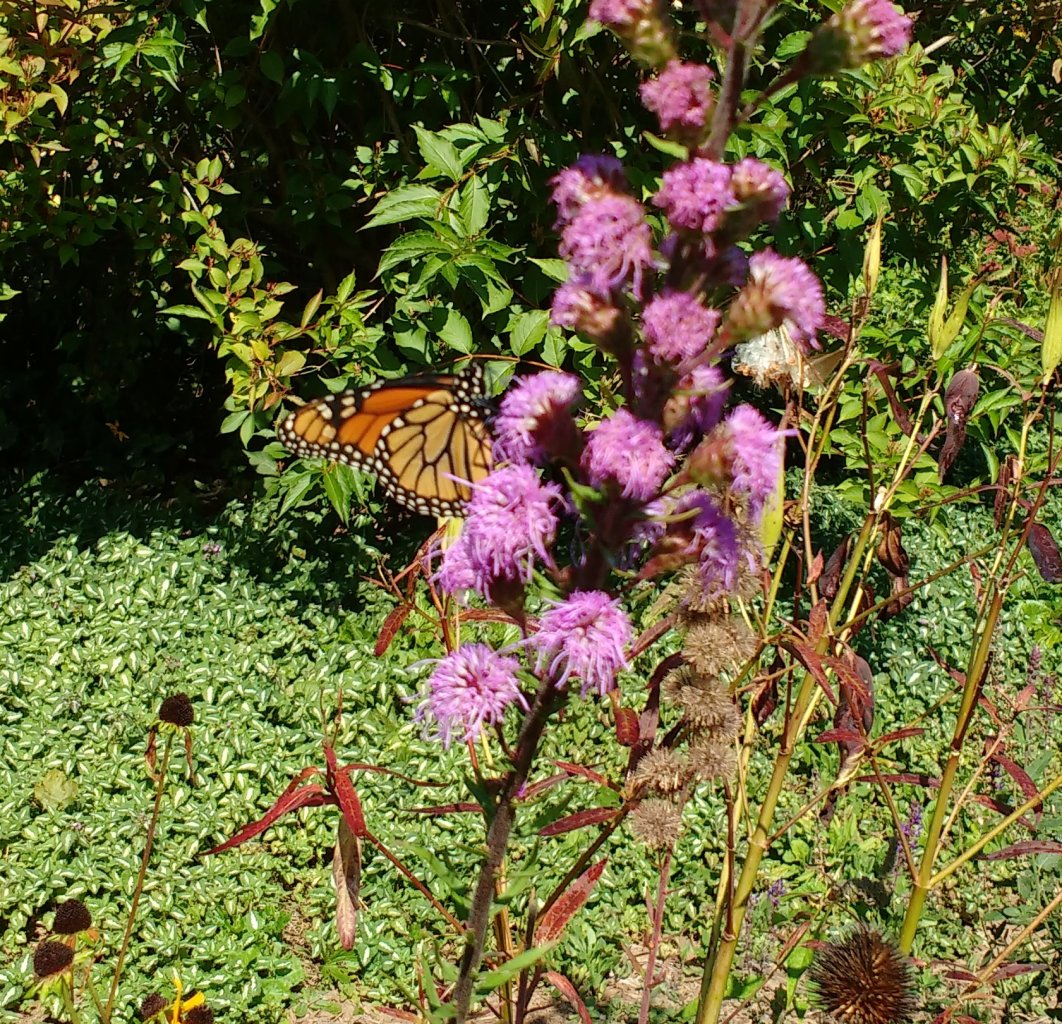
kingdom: Animalia
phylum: Arthropoda
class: Insecta
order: Lepidoptera
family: Nymphalidae
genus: Danaus
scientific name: Danaus plexippus
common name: Monarch
